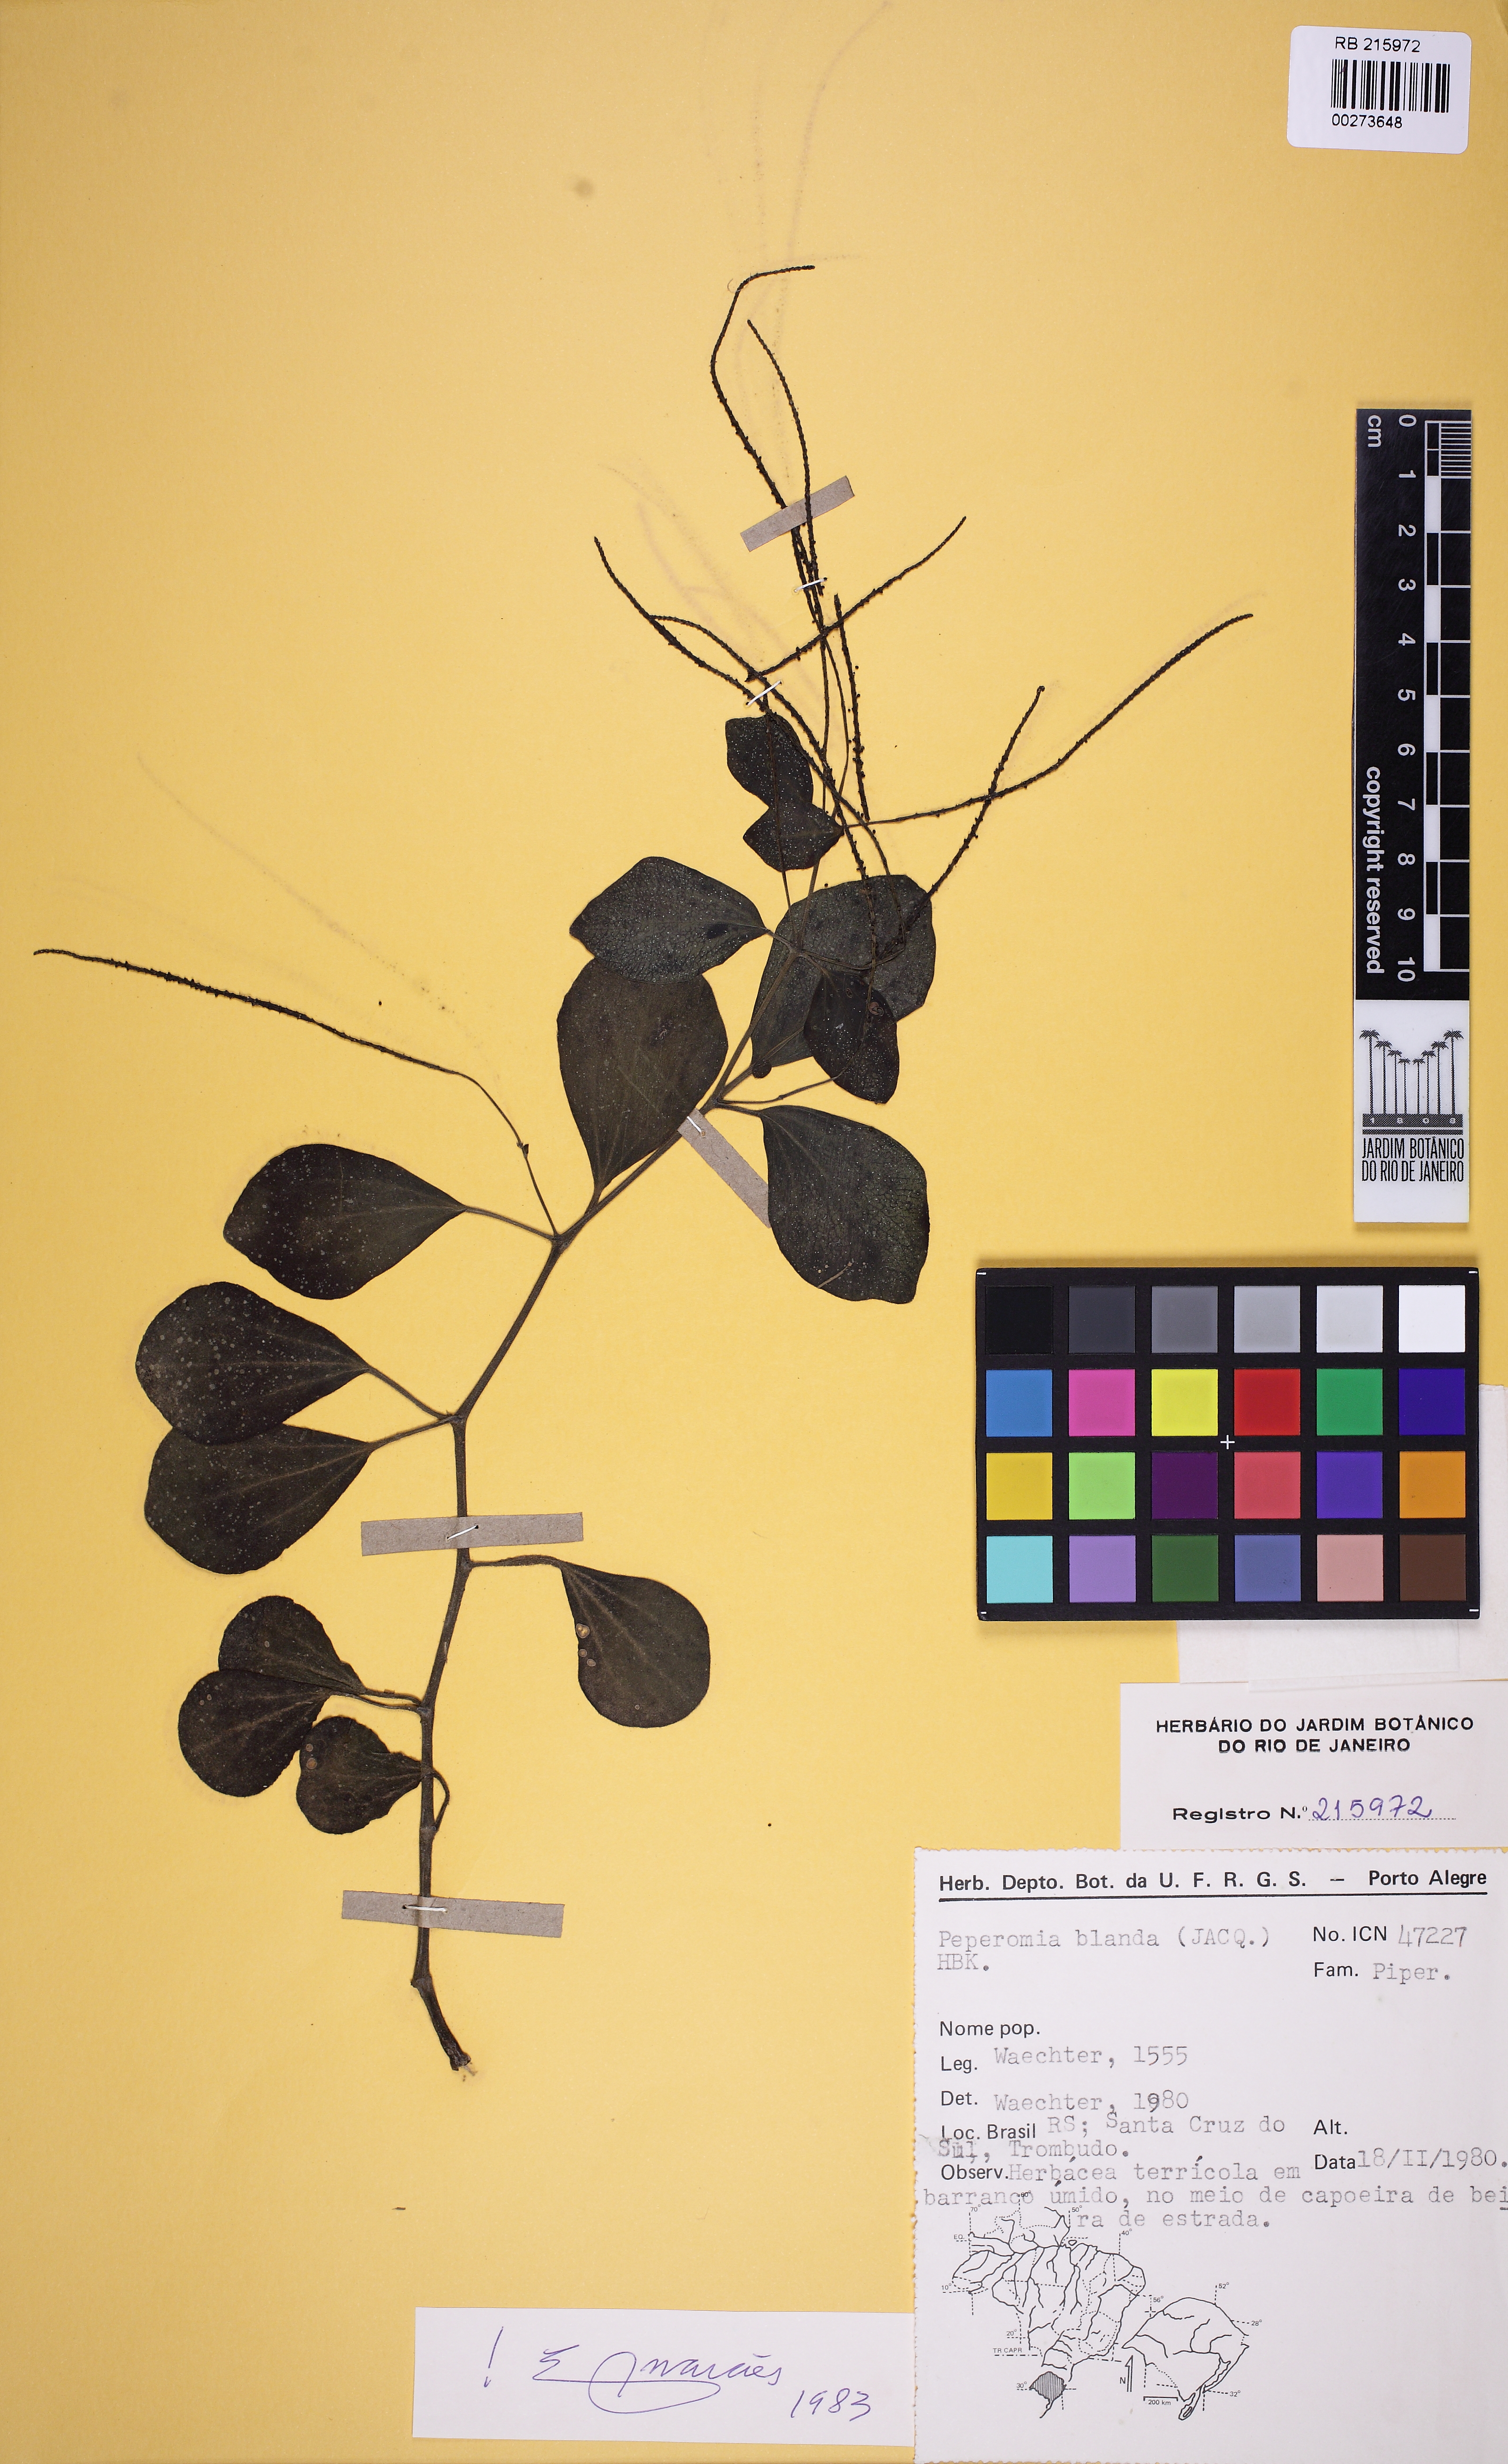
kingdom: Plantae
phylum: Tracheophyta
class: Magnoliopsida
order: Piperales
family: Piperaceae
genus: Peperomia
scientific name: Peperomia blanda
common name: Arid-land peperomia
